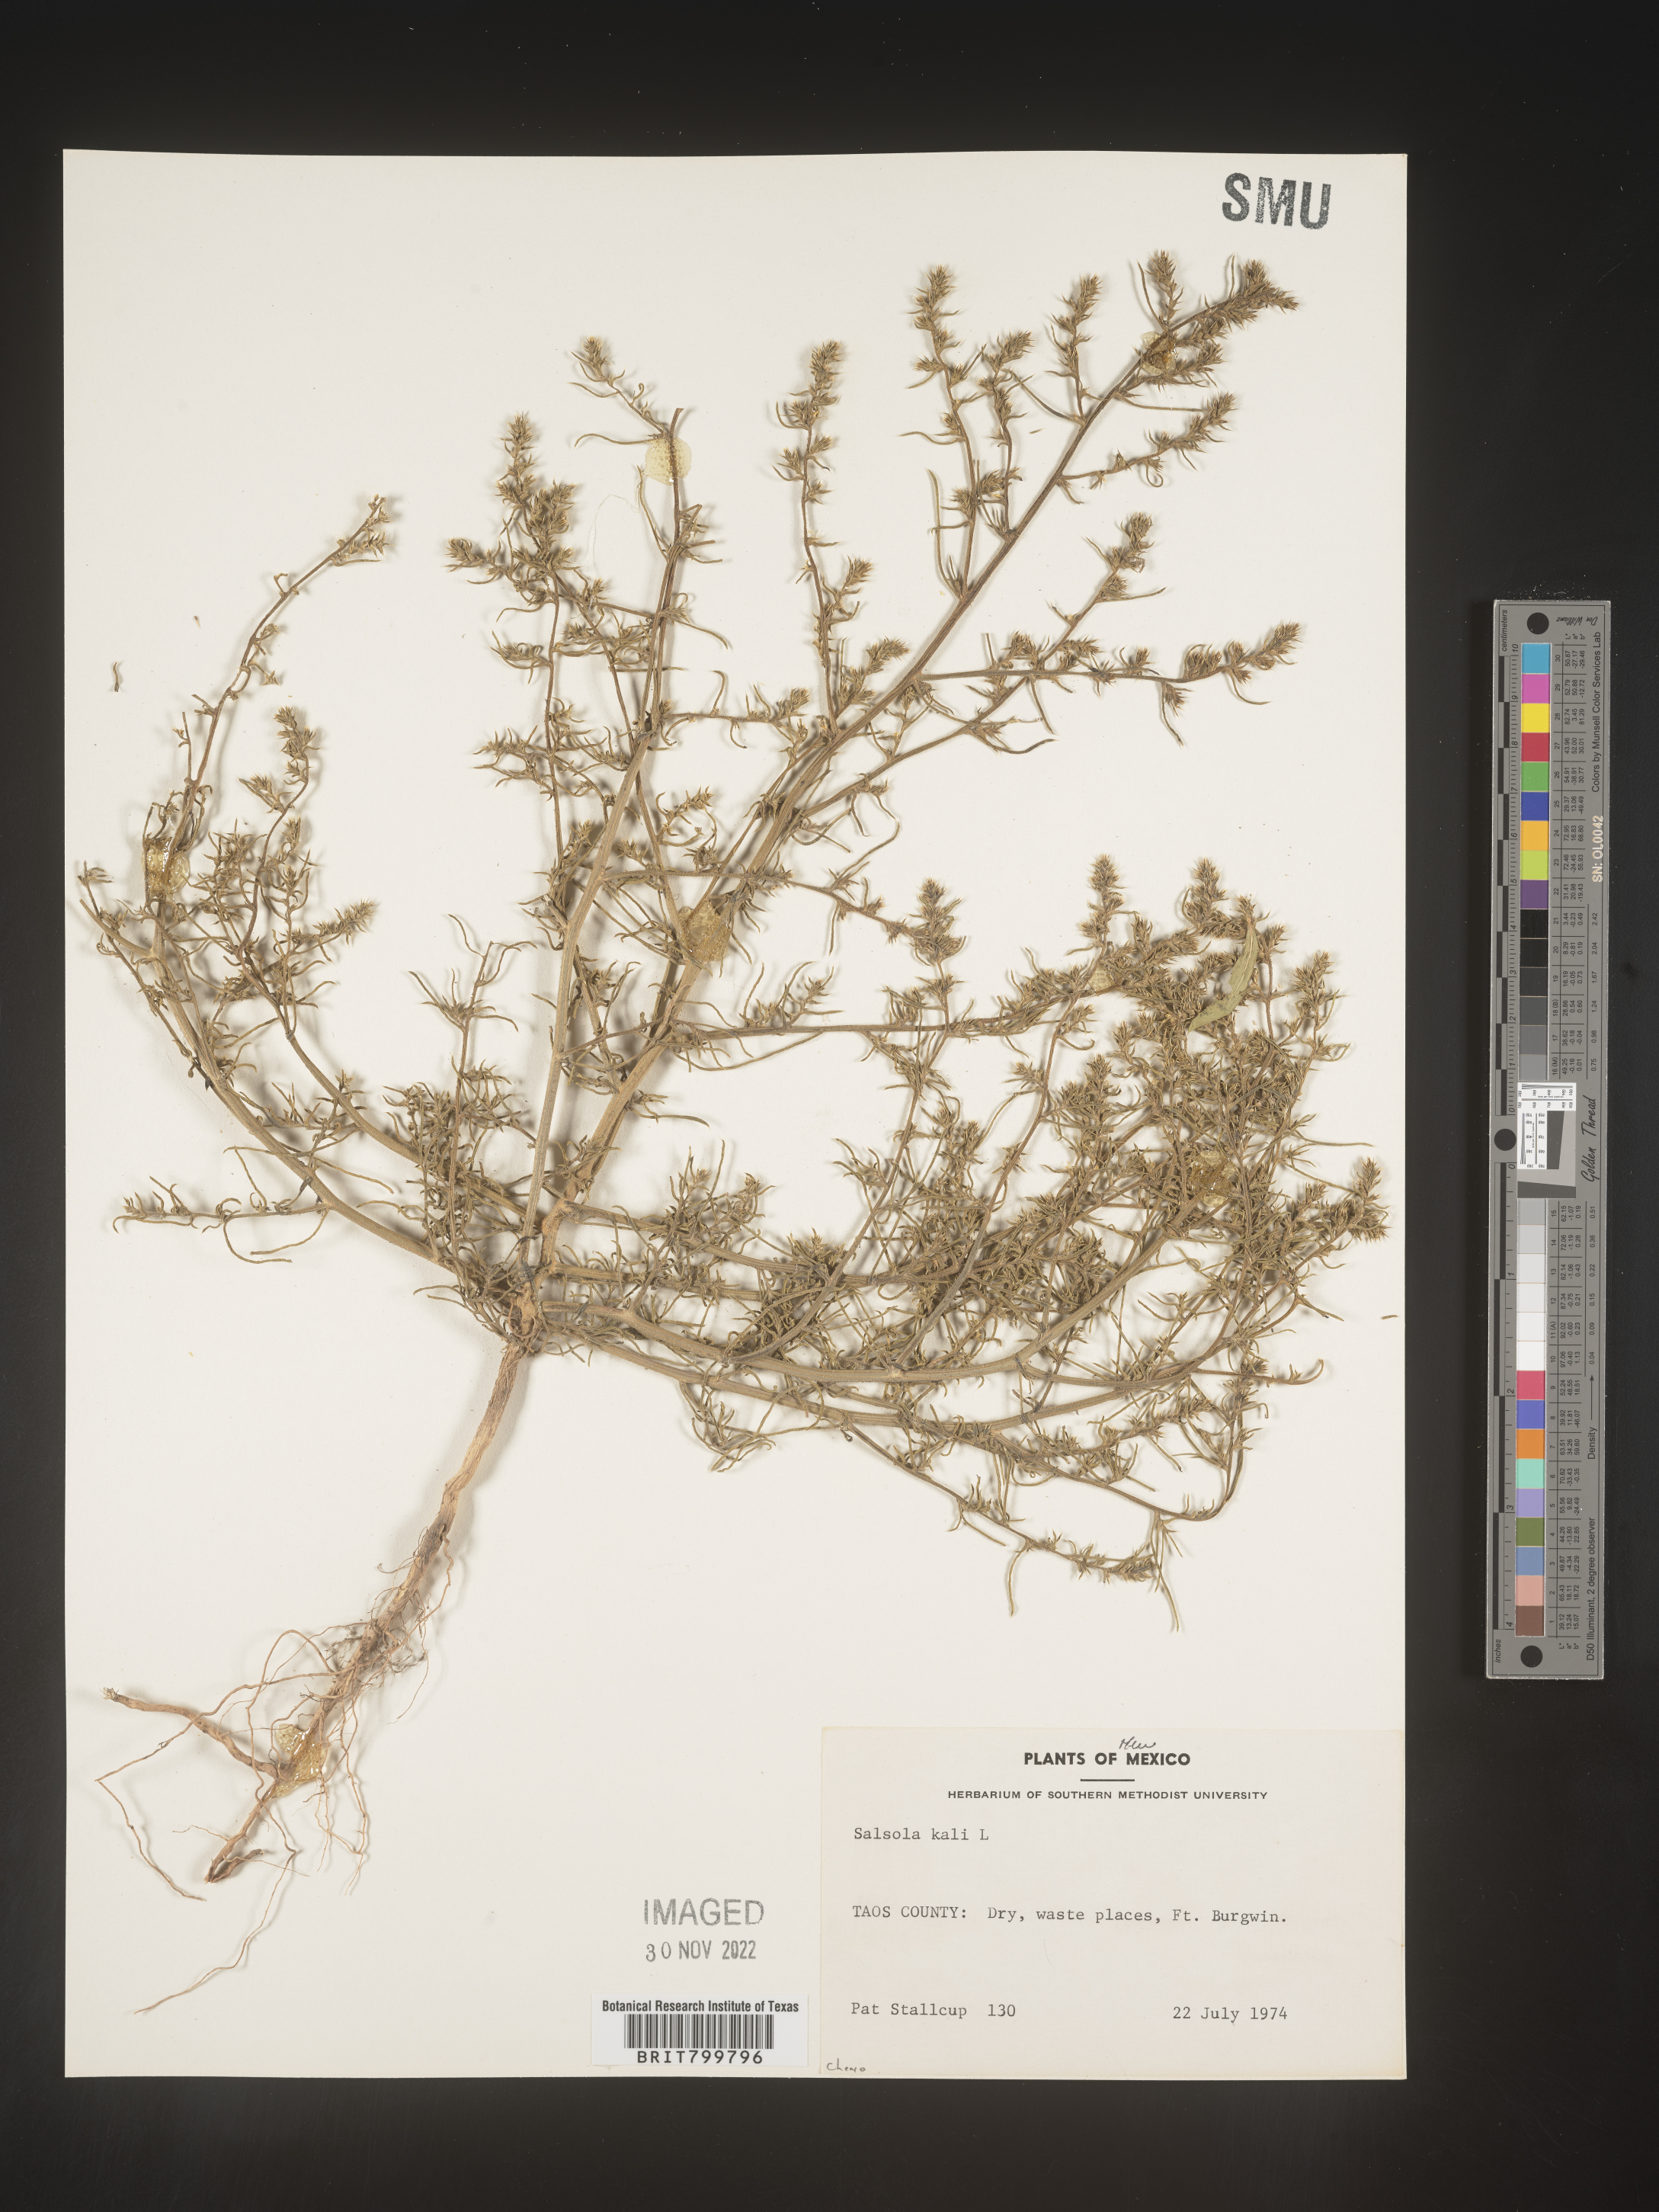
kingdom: Plantae
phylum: Tracheophyta
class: Magnoliopsida
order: Caryophyllales
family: Amaranthaceae
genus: Salsola
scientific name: Salsola tragus
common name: Prickly russian thistle
